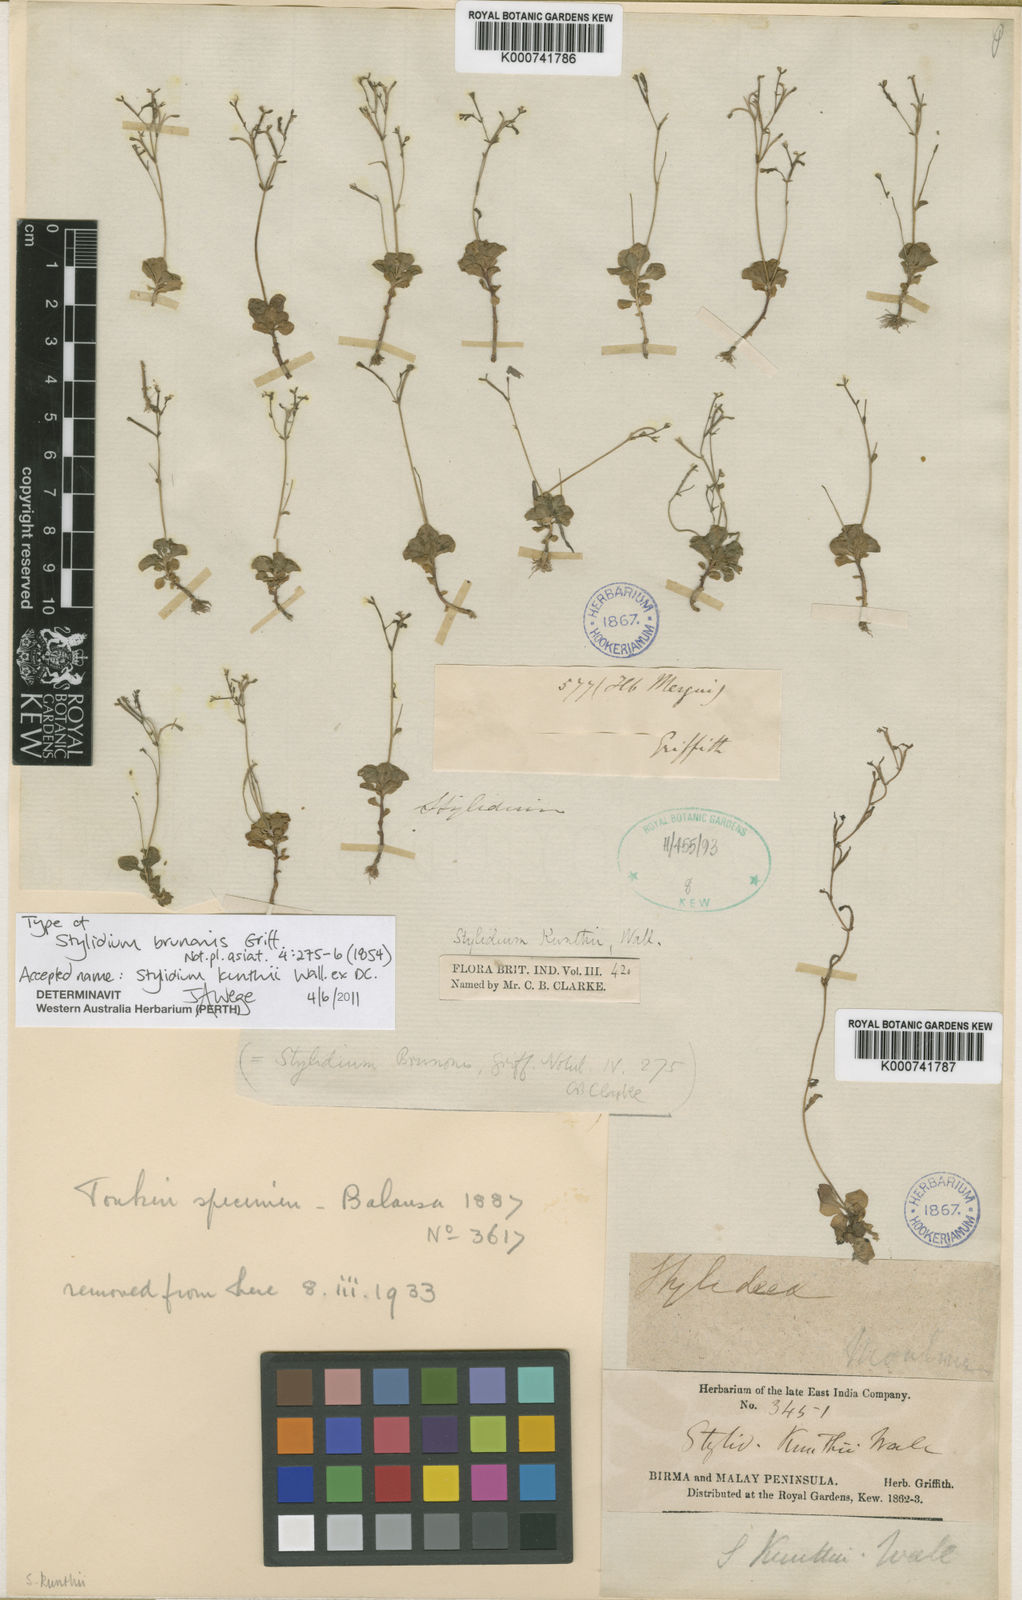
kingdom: Plantae
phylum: Tracheophyta
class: Magnoliopsida
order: Asterales
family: Stylidiaceae
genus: Stylidium
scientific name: Stylidium
